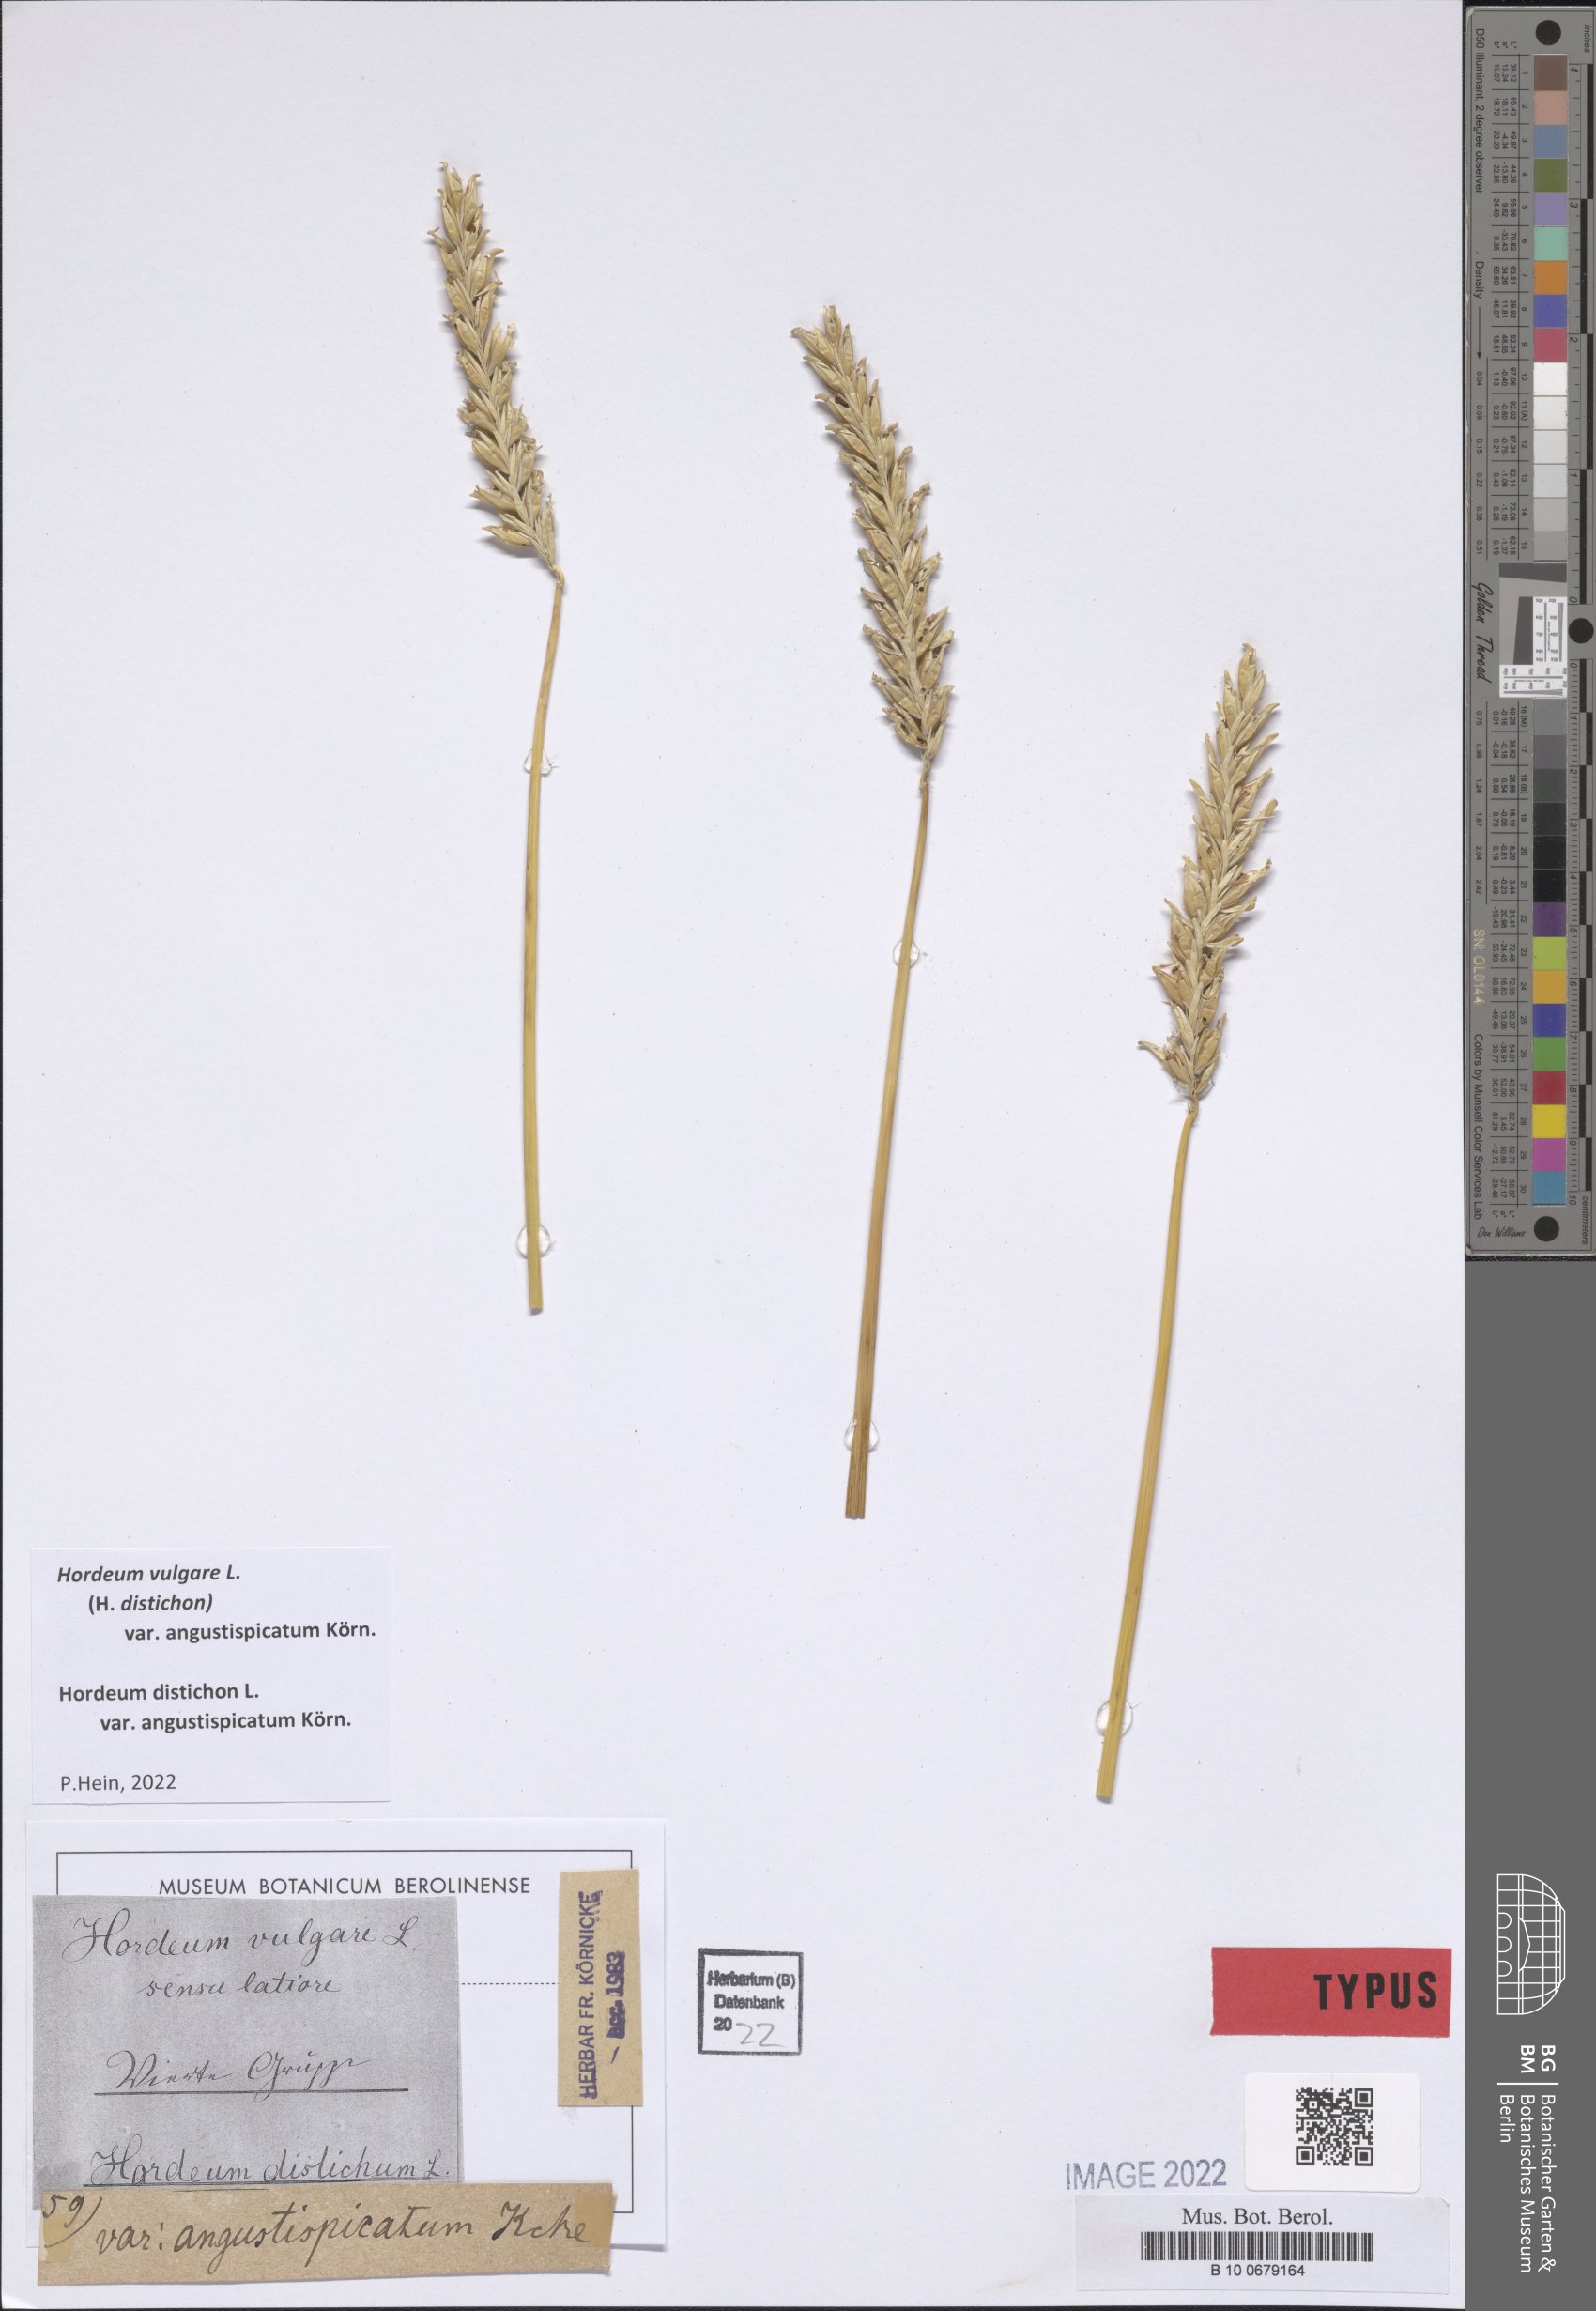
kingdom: Plantae
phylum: Tracheophyta
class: Liliopsida
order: Poales
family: Poaceae
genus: Hordeum
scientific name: Hordeum vulgare
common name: Common barley
